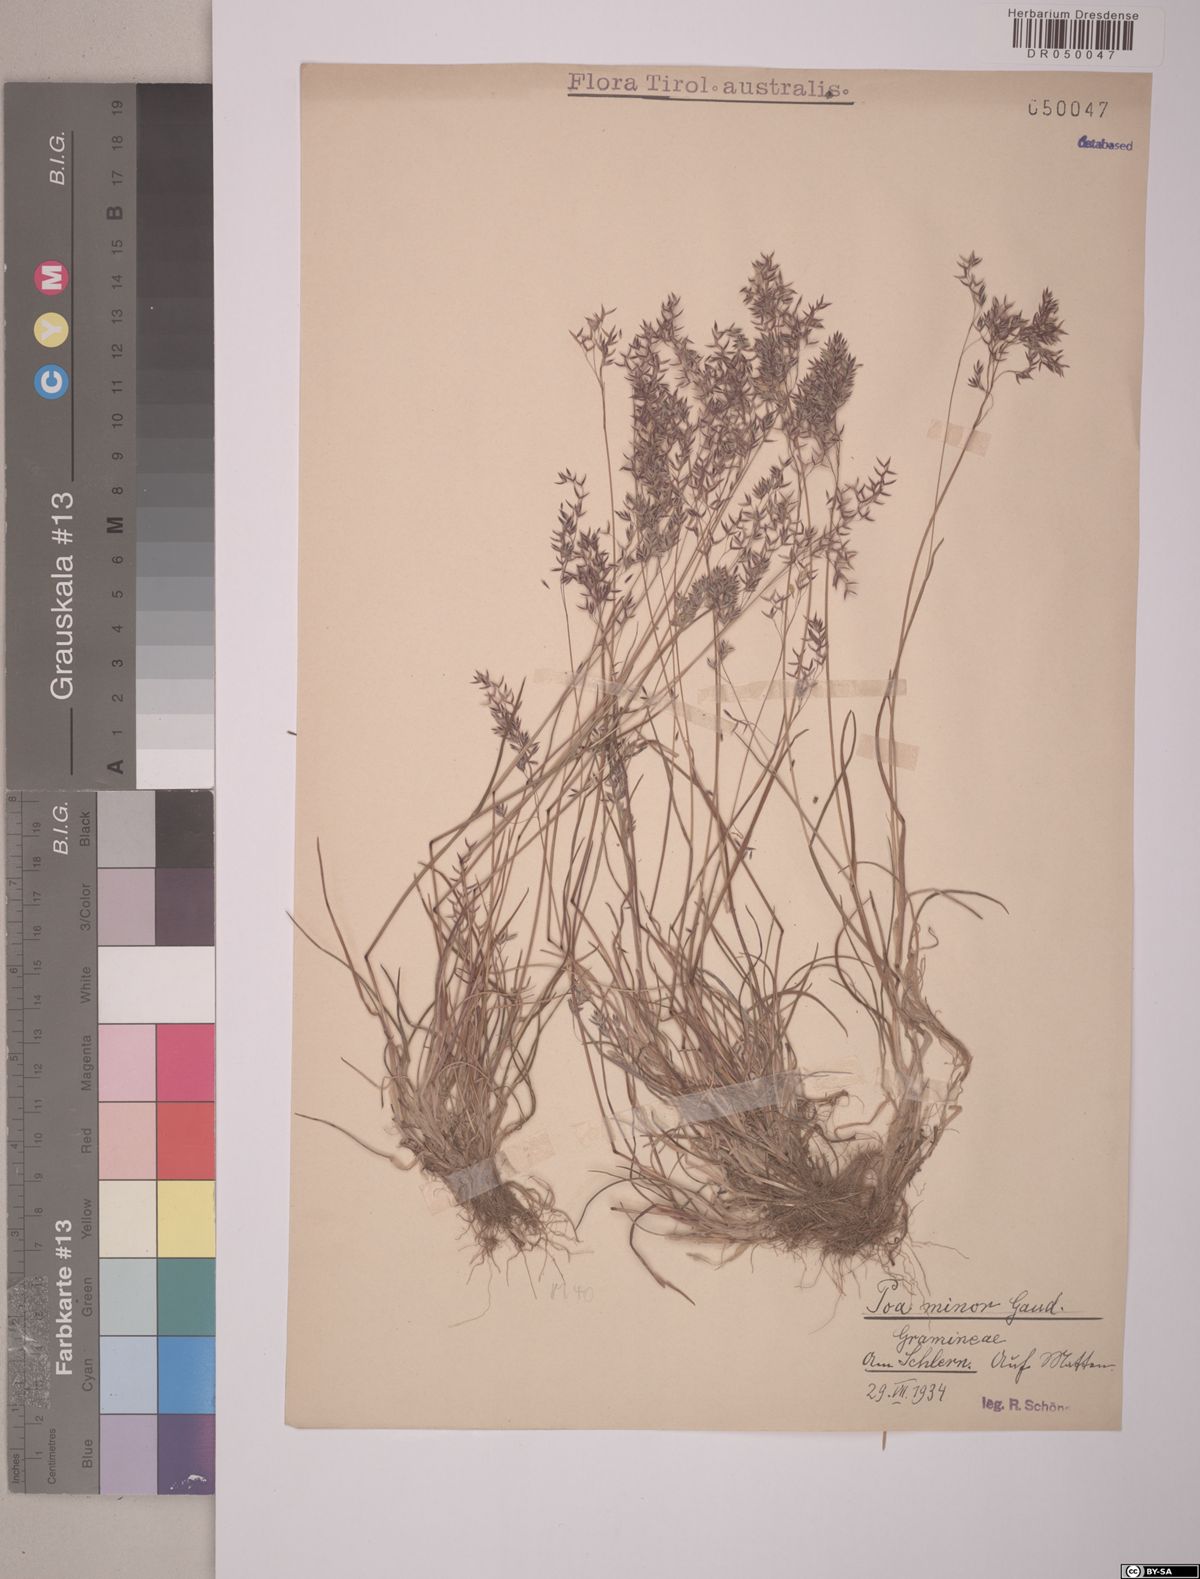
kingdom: Plantae
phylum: Tracheophyta
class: Liliopsida
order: Poales
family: Poaceae
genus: Poa
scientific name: Poa minor
